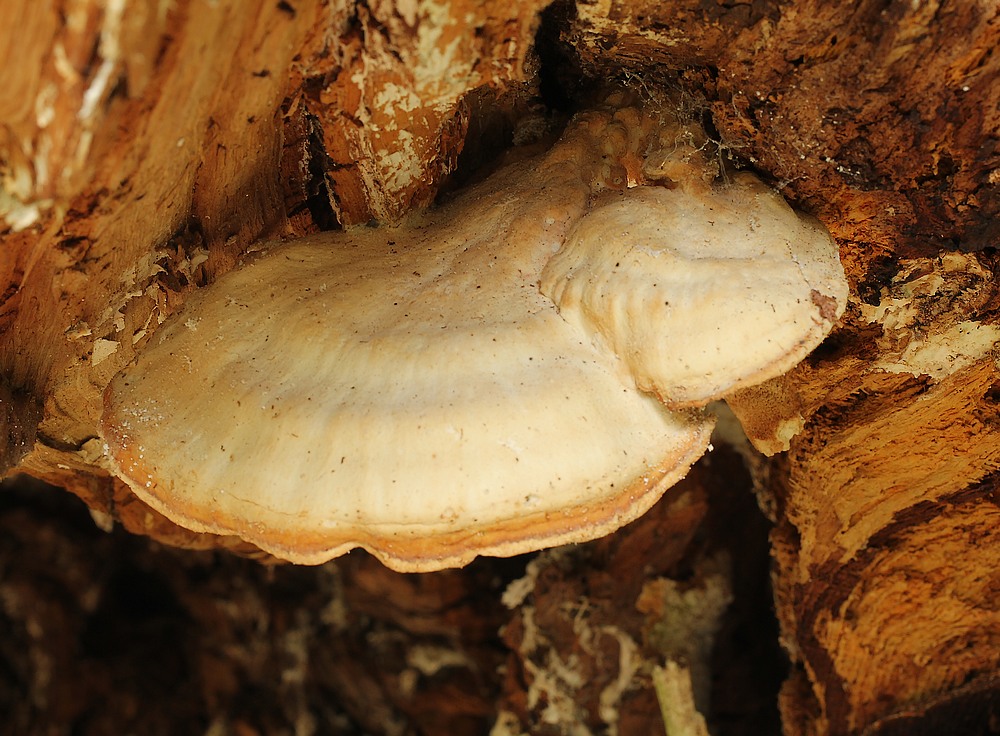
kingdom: Fungi
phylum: Basidiomycota
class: Agaricomycetes
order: Polyporales
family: Laetiporaceae
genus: Laetiporus
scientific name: Laetiporus sulphureus
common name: svovlporesvamp
